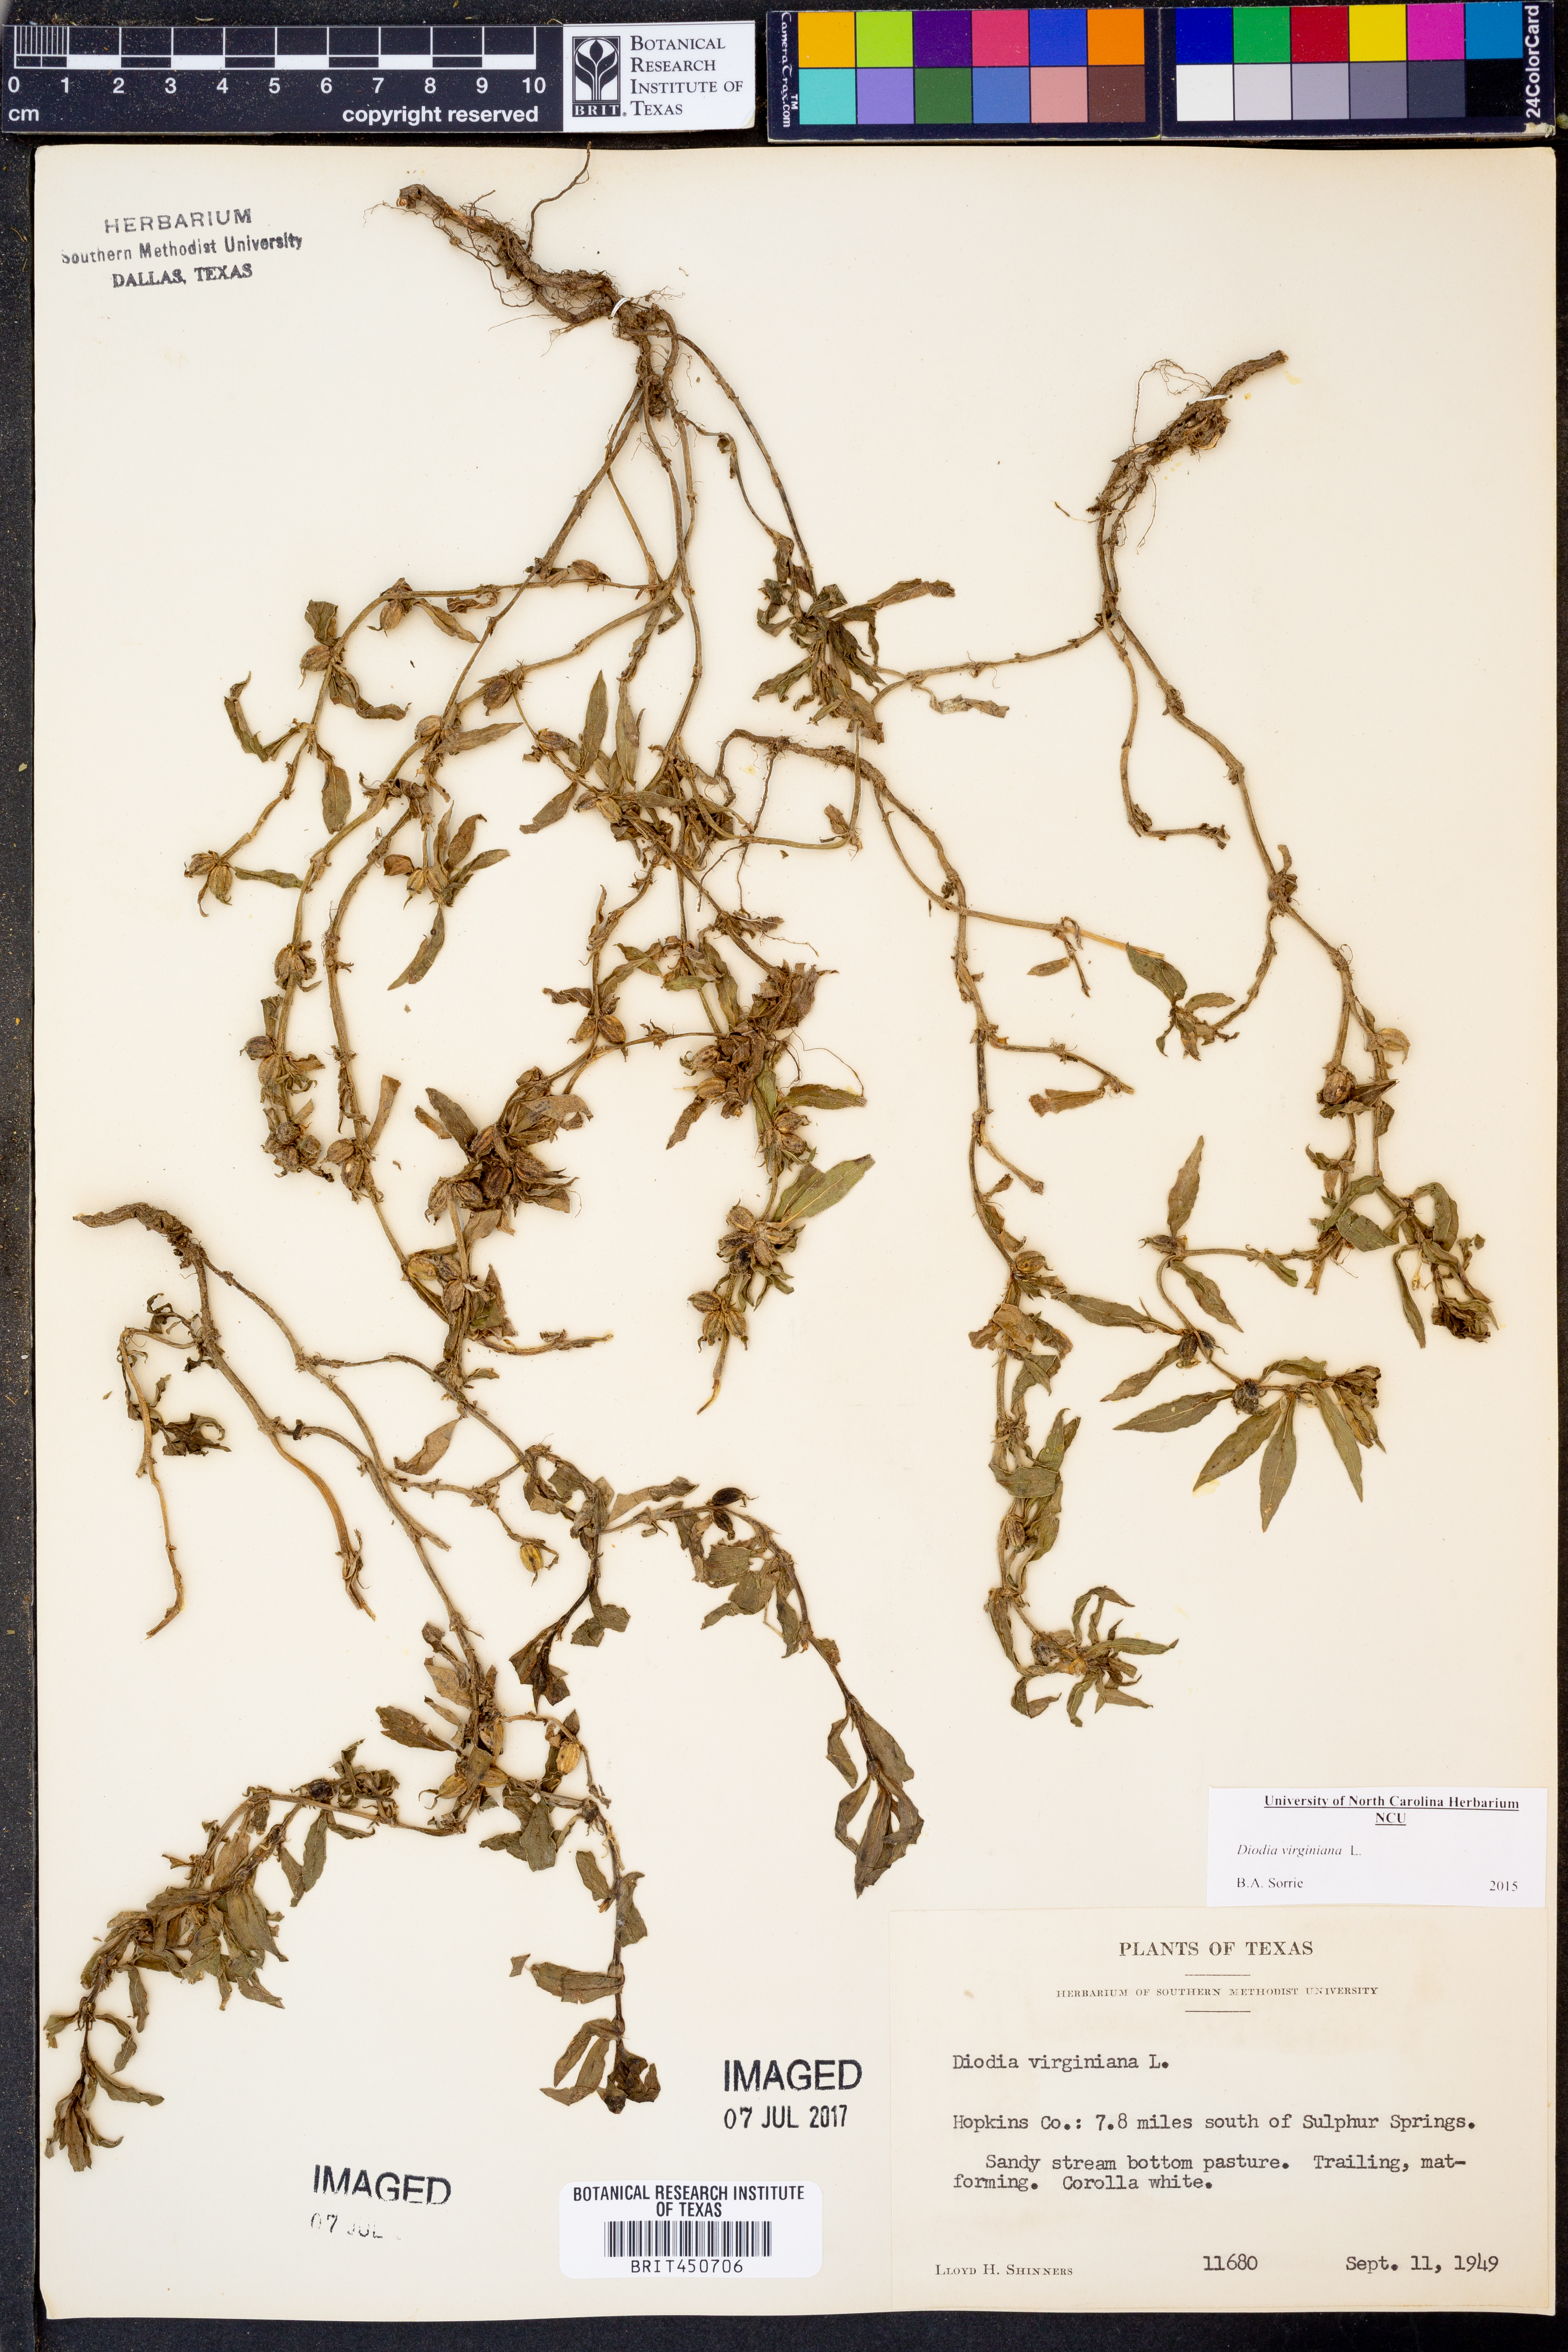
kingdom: Plantae
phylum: Tracheophyta
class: Magnoliopsida
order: Gentianales
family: Rubiaceae
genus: Diodia
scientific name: Diodia virginiana
